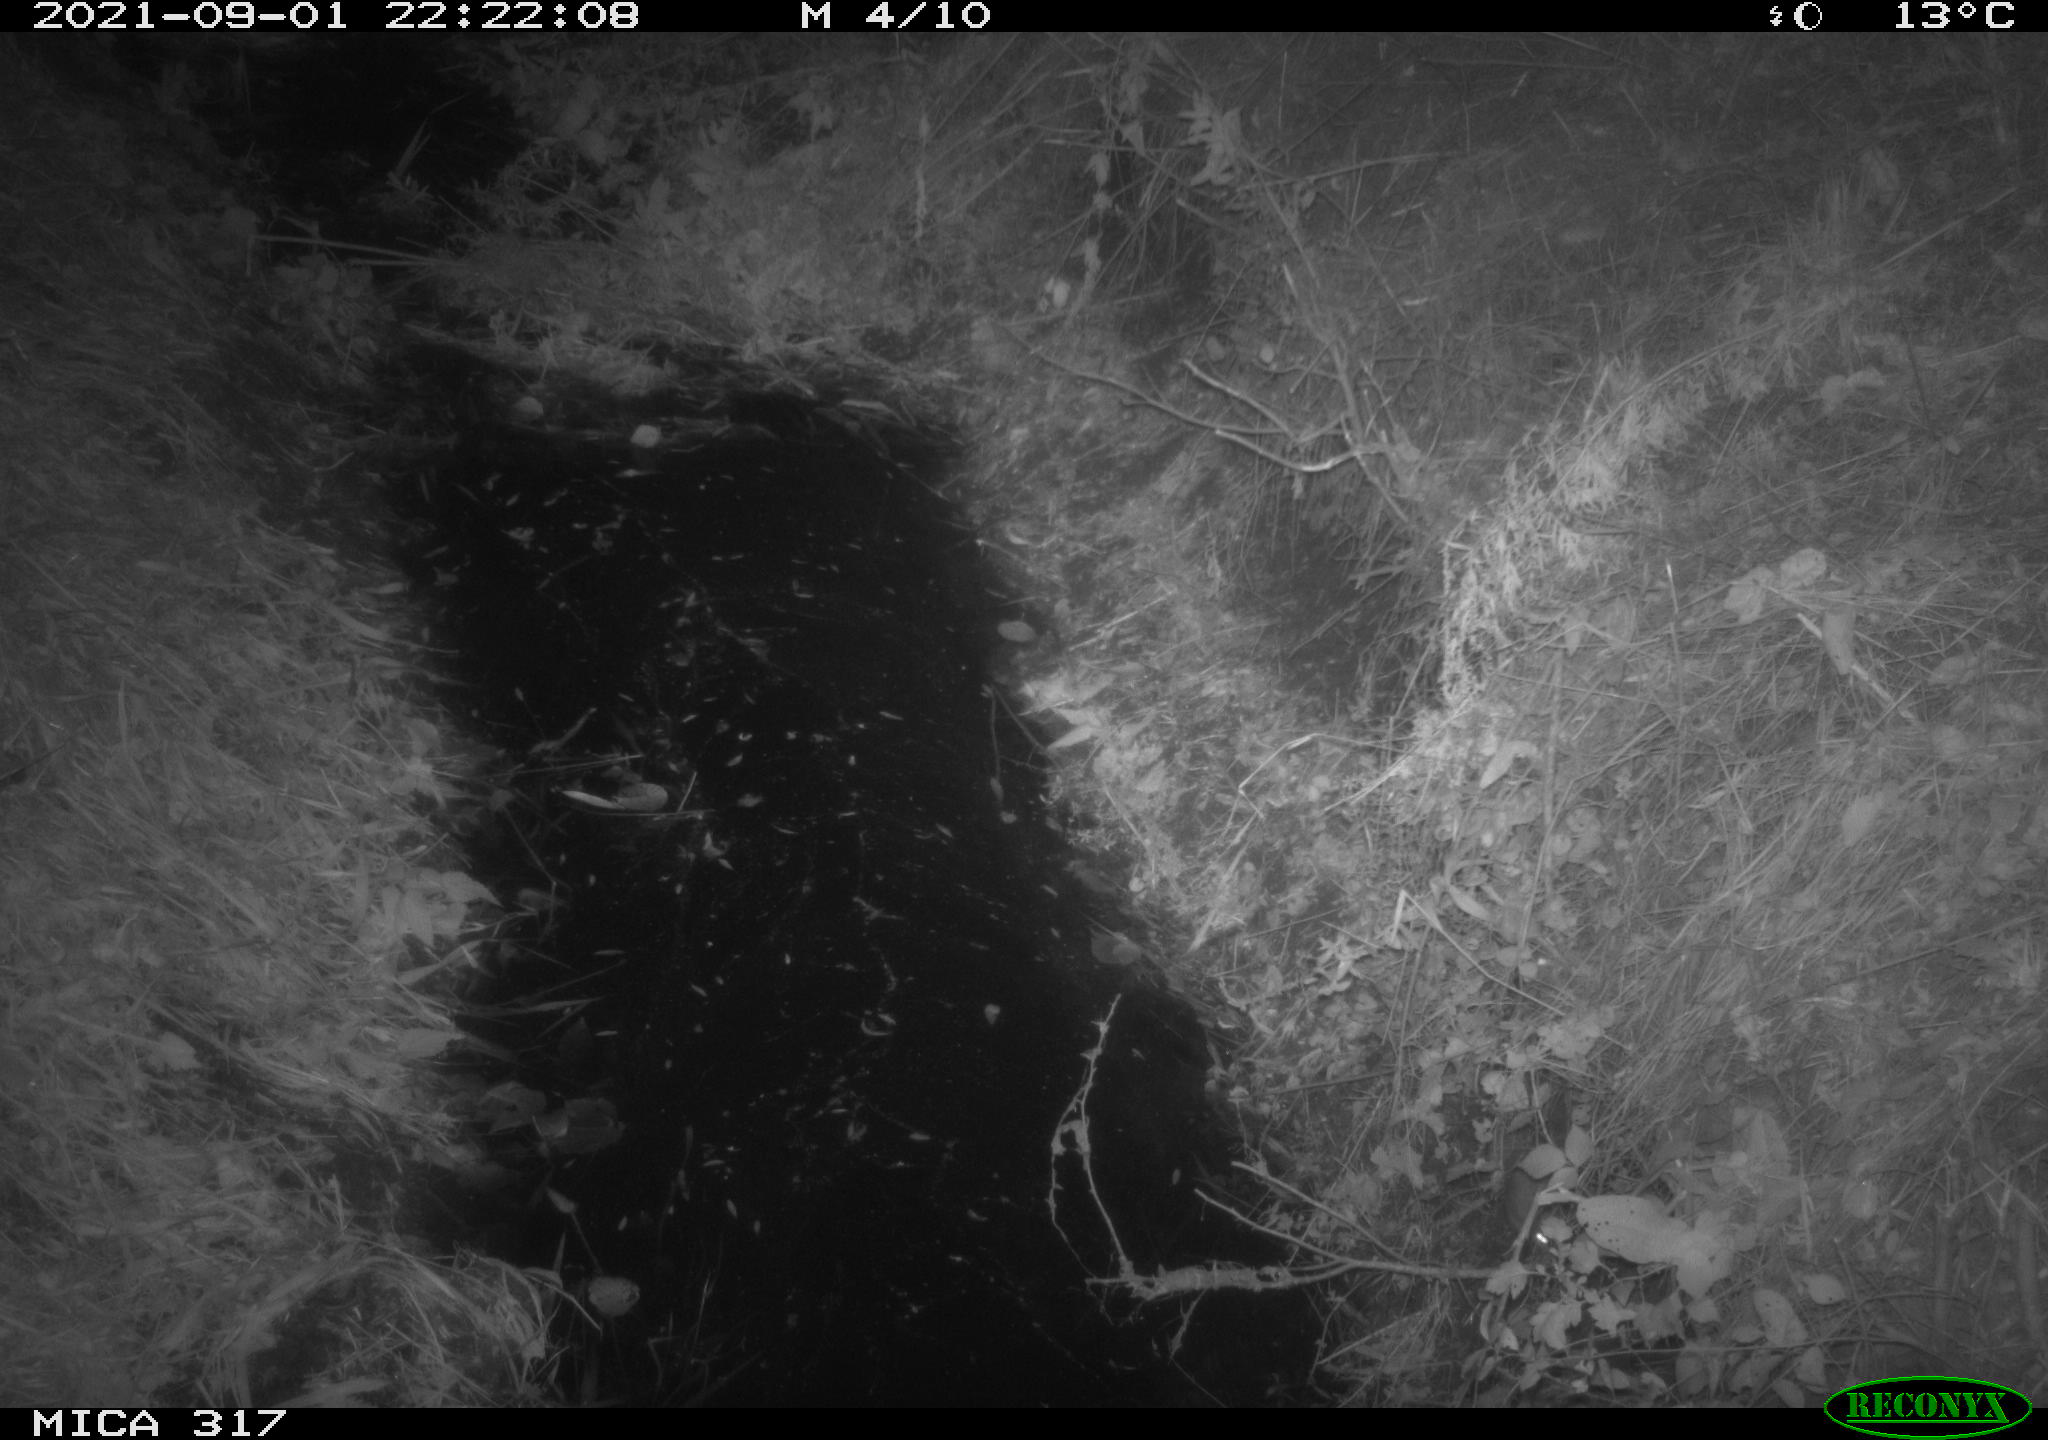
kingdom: Animalia
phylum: Chordata
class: Mammalia
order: Rodentia
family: Muridae
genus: Rattus
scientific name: Rattus norvegicus
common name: Brown rat
